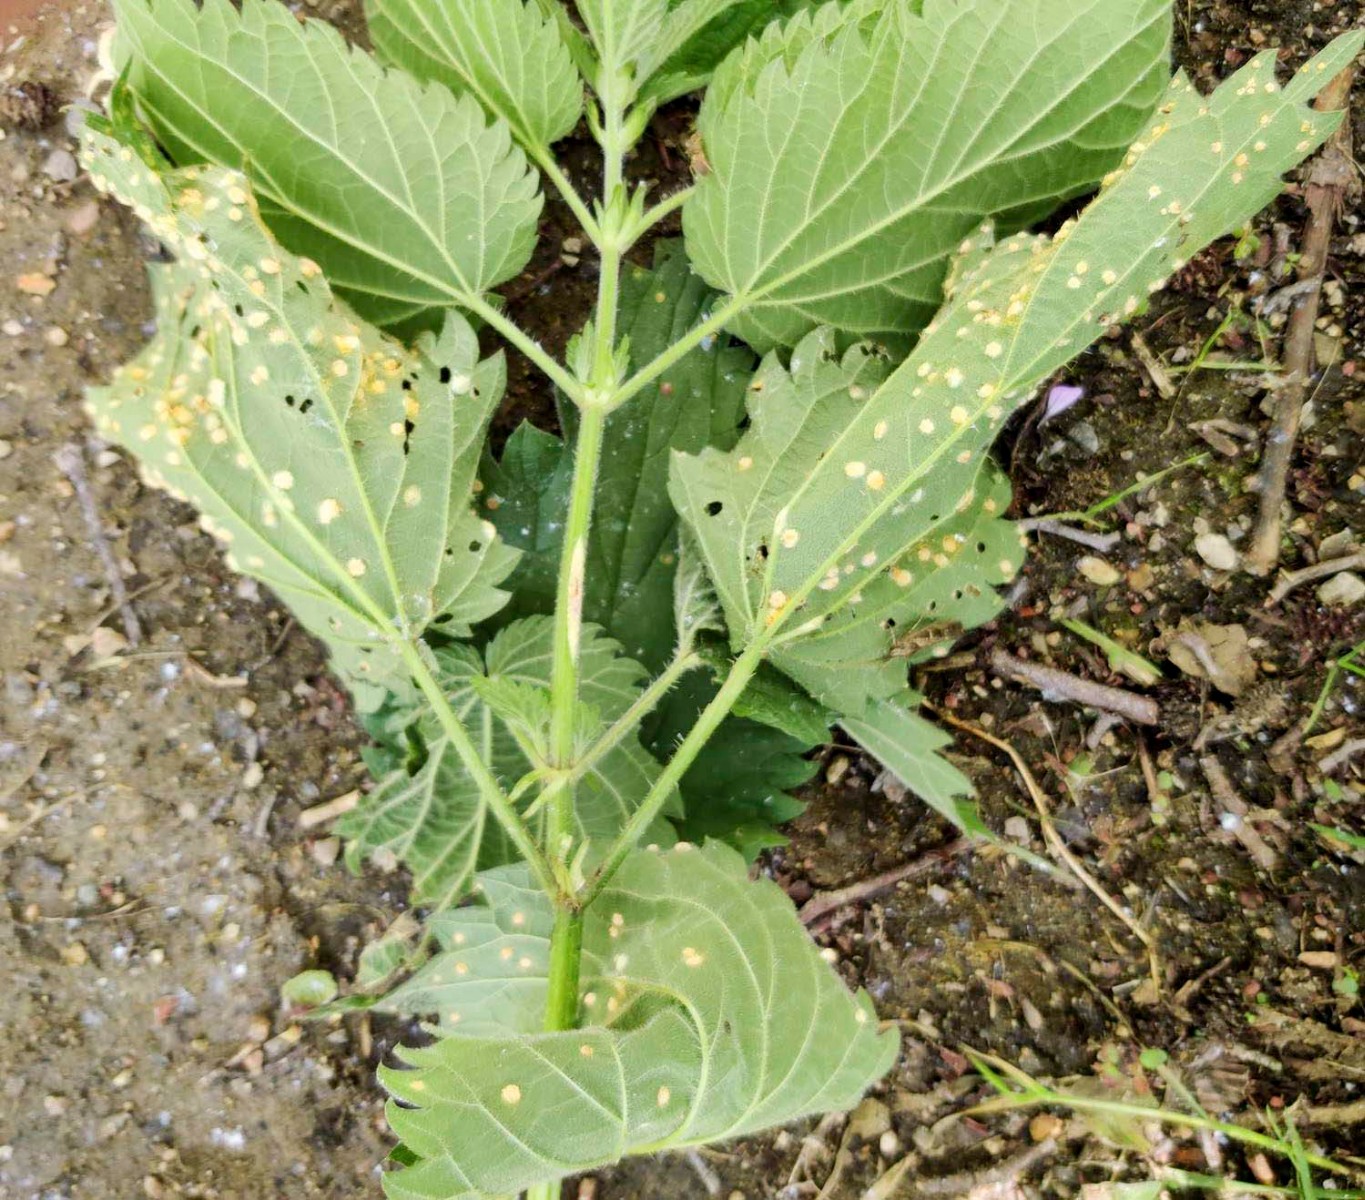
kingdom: Fungi
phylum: Basidiomycota
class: Pucciniomycetes
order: Pucciniales
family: Pucciniaceae
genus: Puccinia
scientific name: Puccinia urticata
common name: nældegalle-tvecellerust
